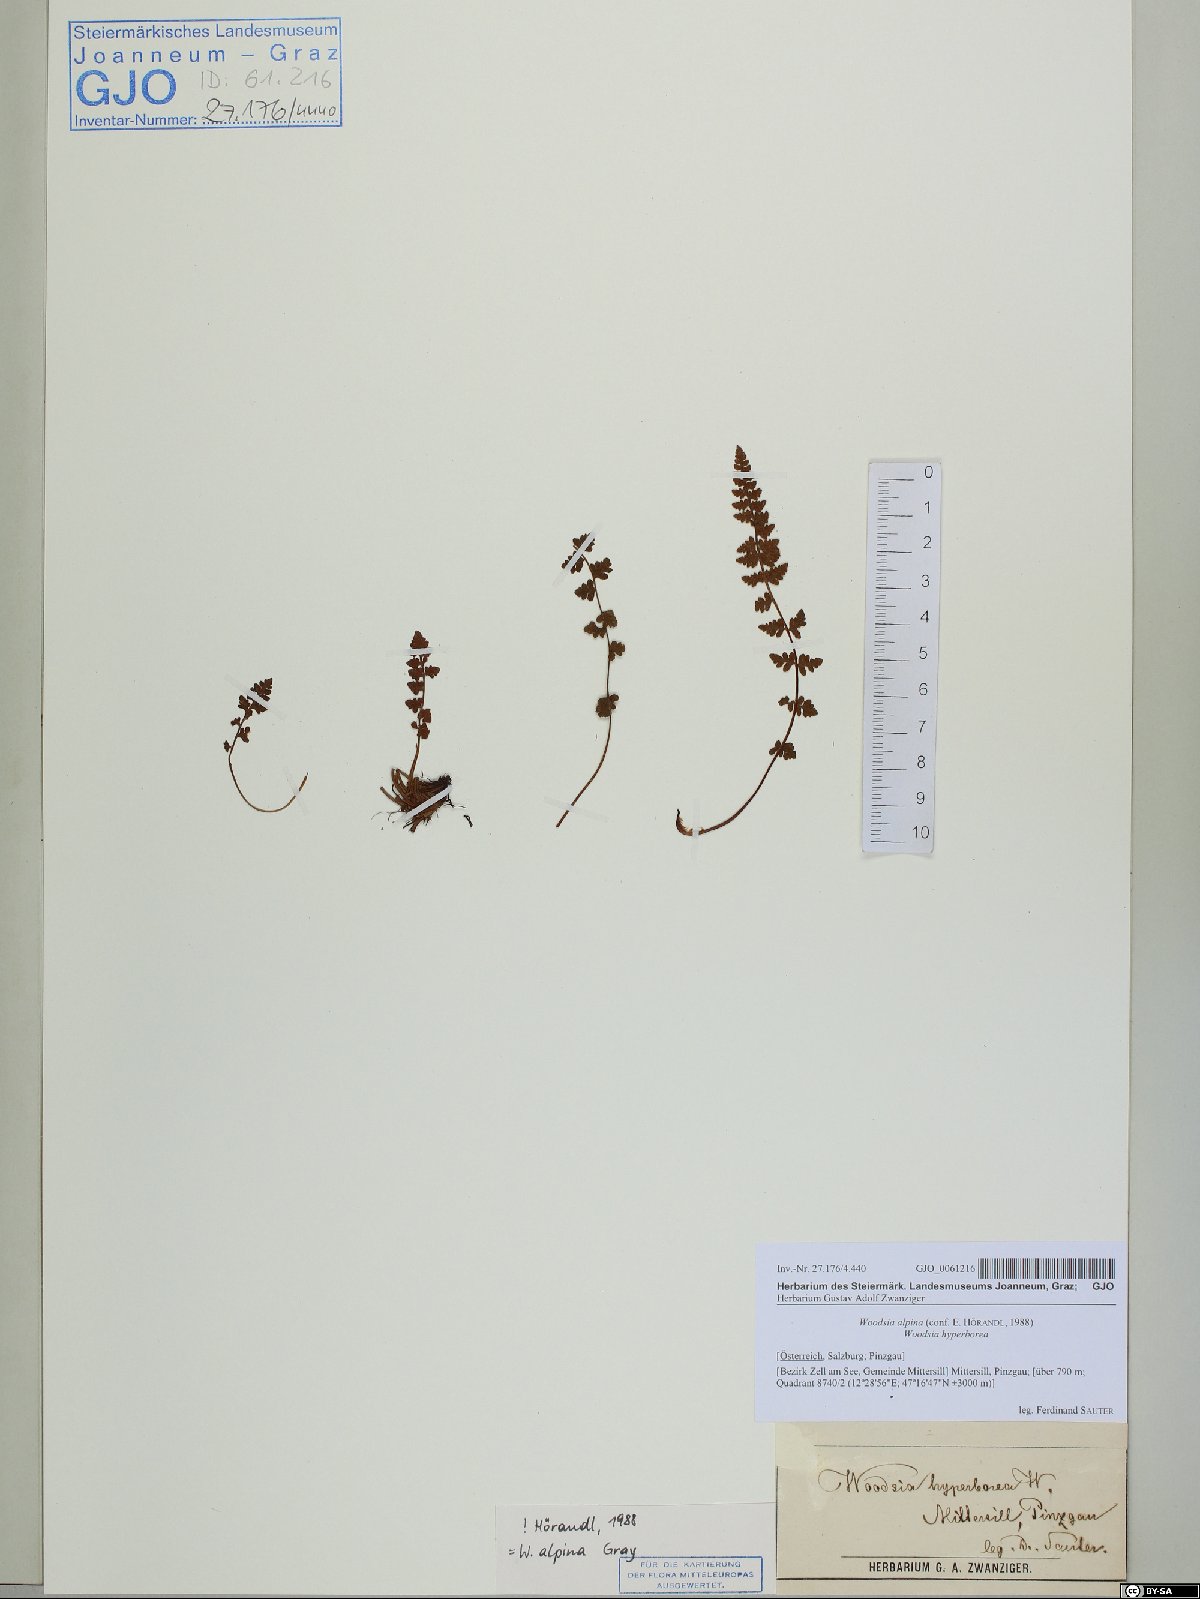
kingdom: Plantae
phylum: Tracheophyta
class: Polypodiopsida
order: Polypodiales
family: Woodsiaceae
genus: Woodsia
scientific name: Woodsia alpina
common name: Alpine woodsia
